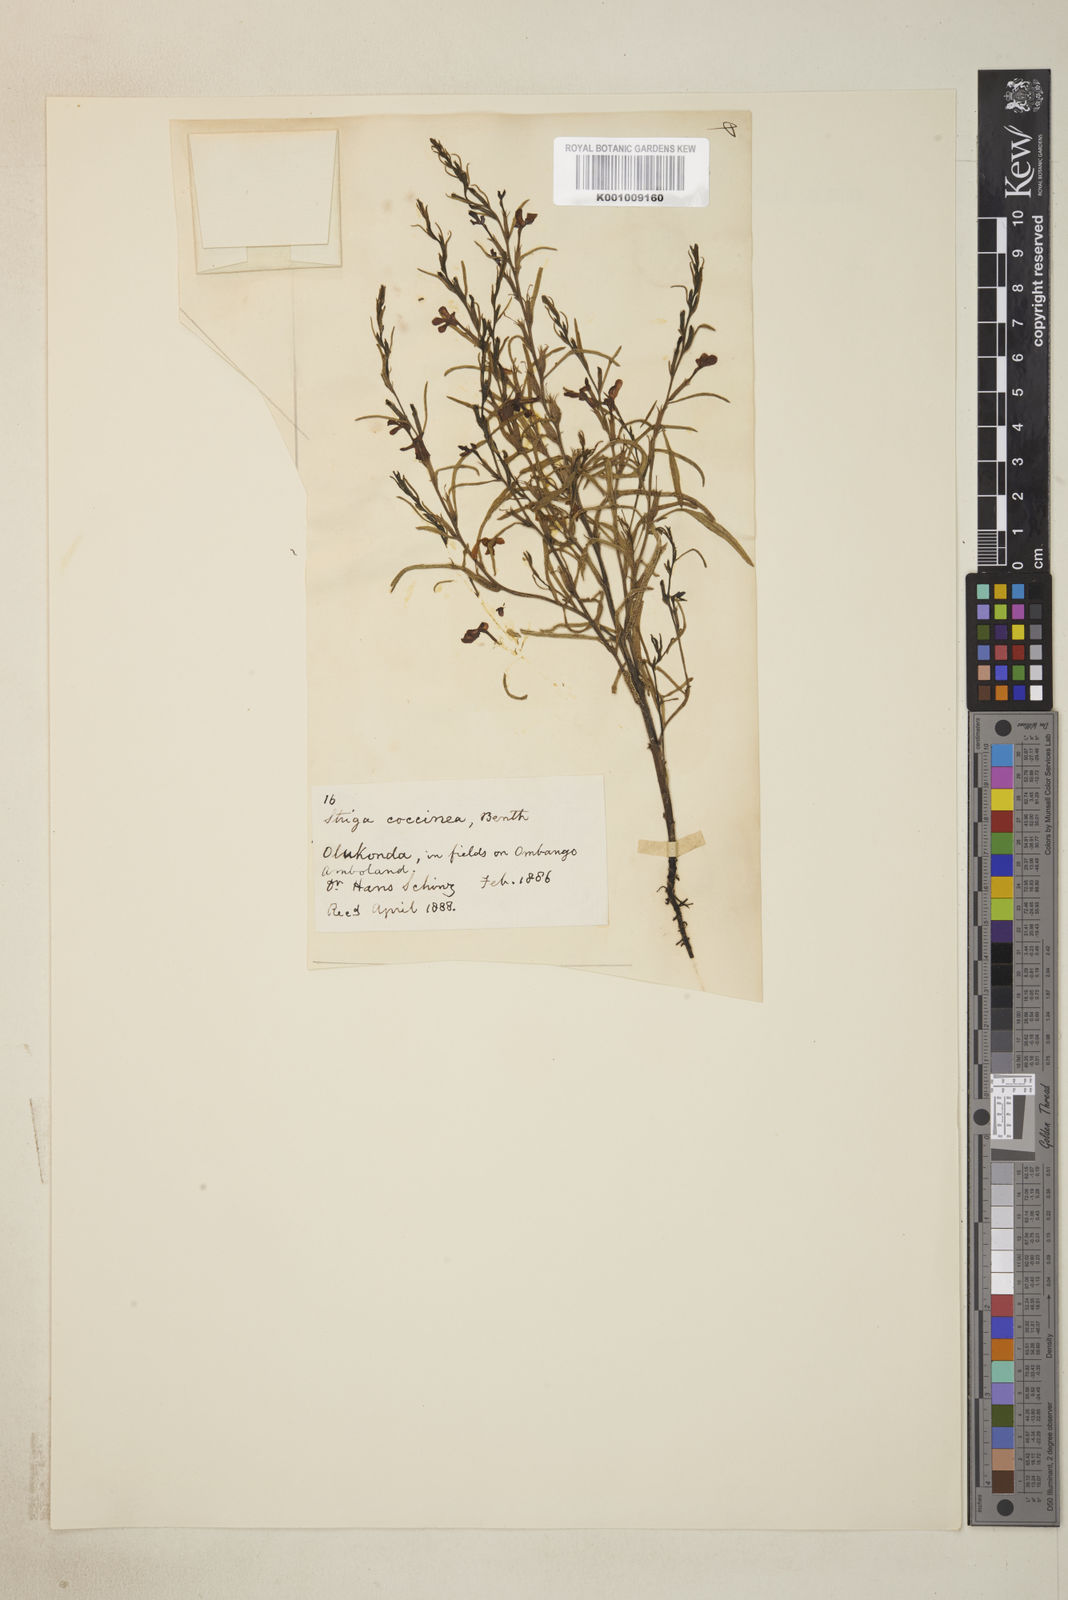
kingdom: Plantae
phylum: Tracheophyta
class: Magnoliopsida
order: Lamiales
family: Orobanchaceae
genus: Striga
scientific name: Striga asiatica
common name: Asiatic witchweed
